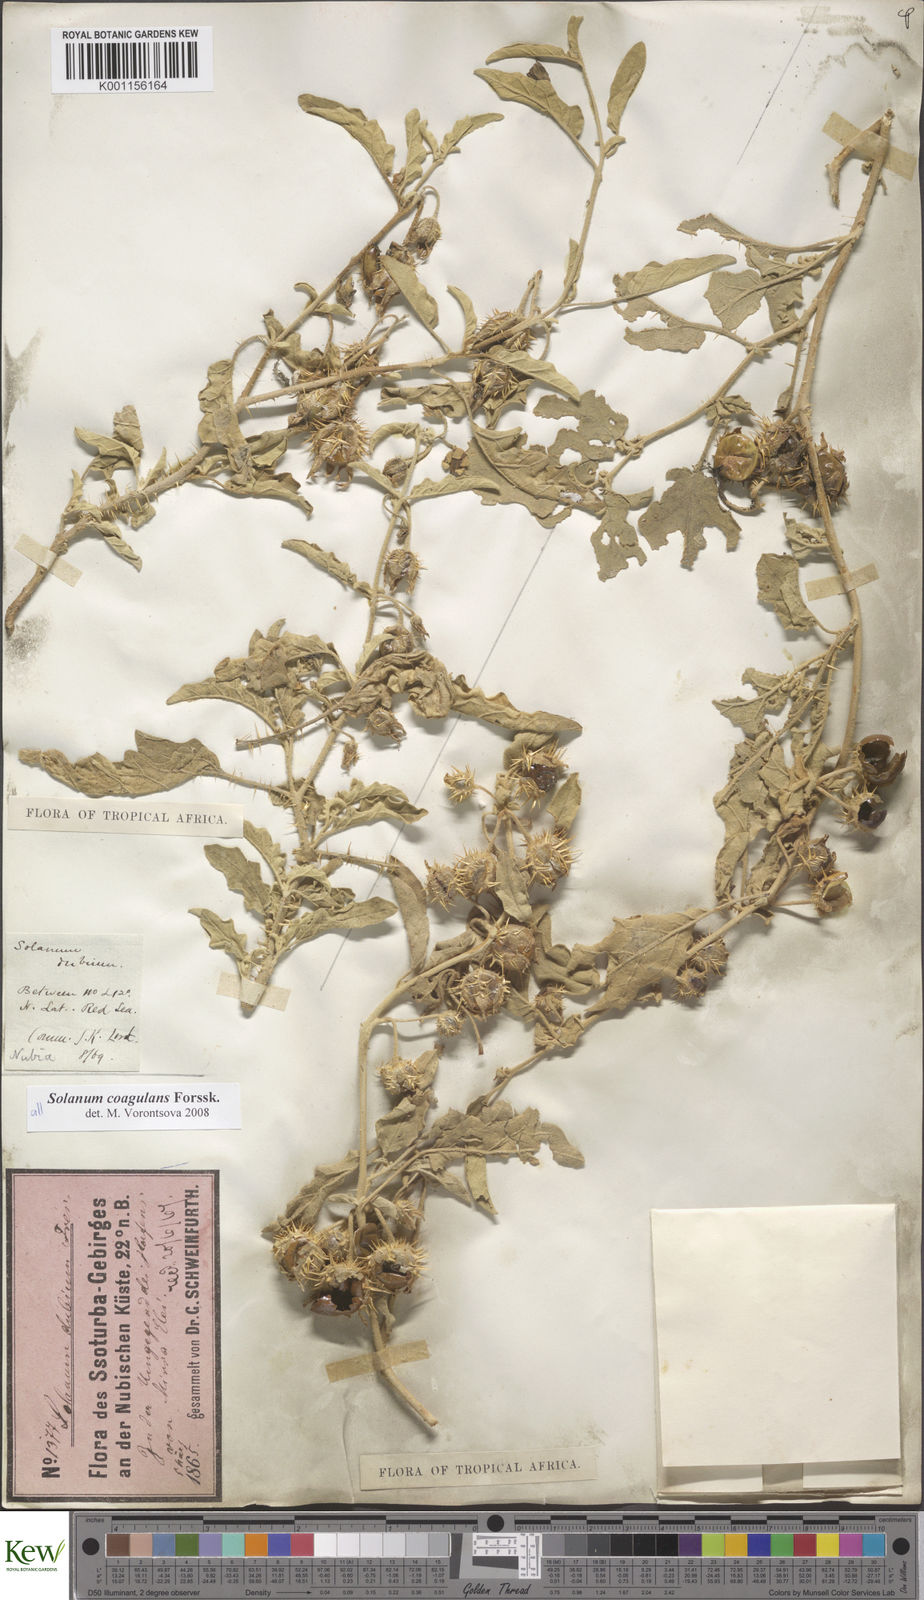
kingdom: Plantae
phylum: Tracheophyta
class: Magnoliopsida
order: Solanales
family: Solanaceae
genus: Solanum
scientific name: Solanum coagulans
